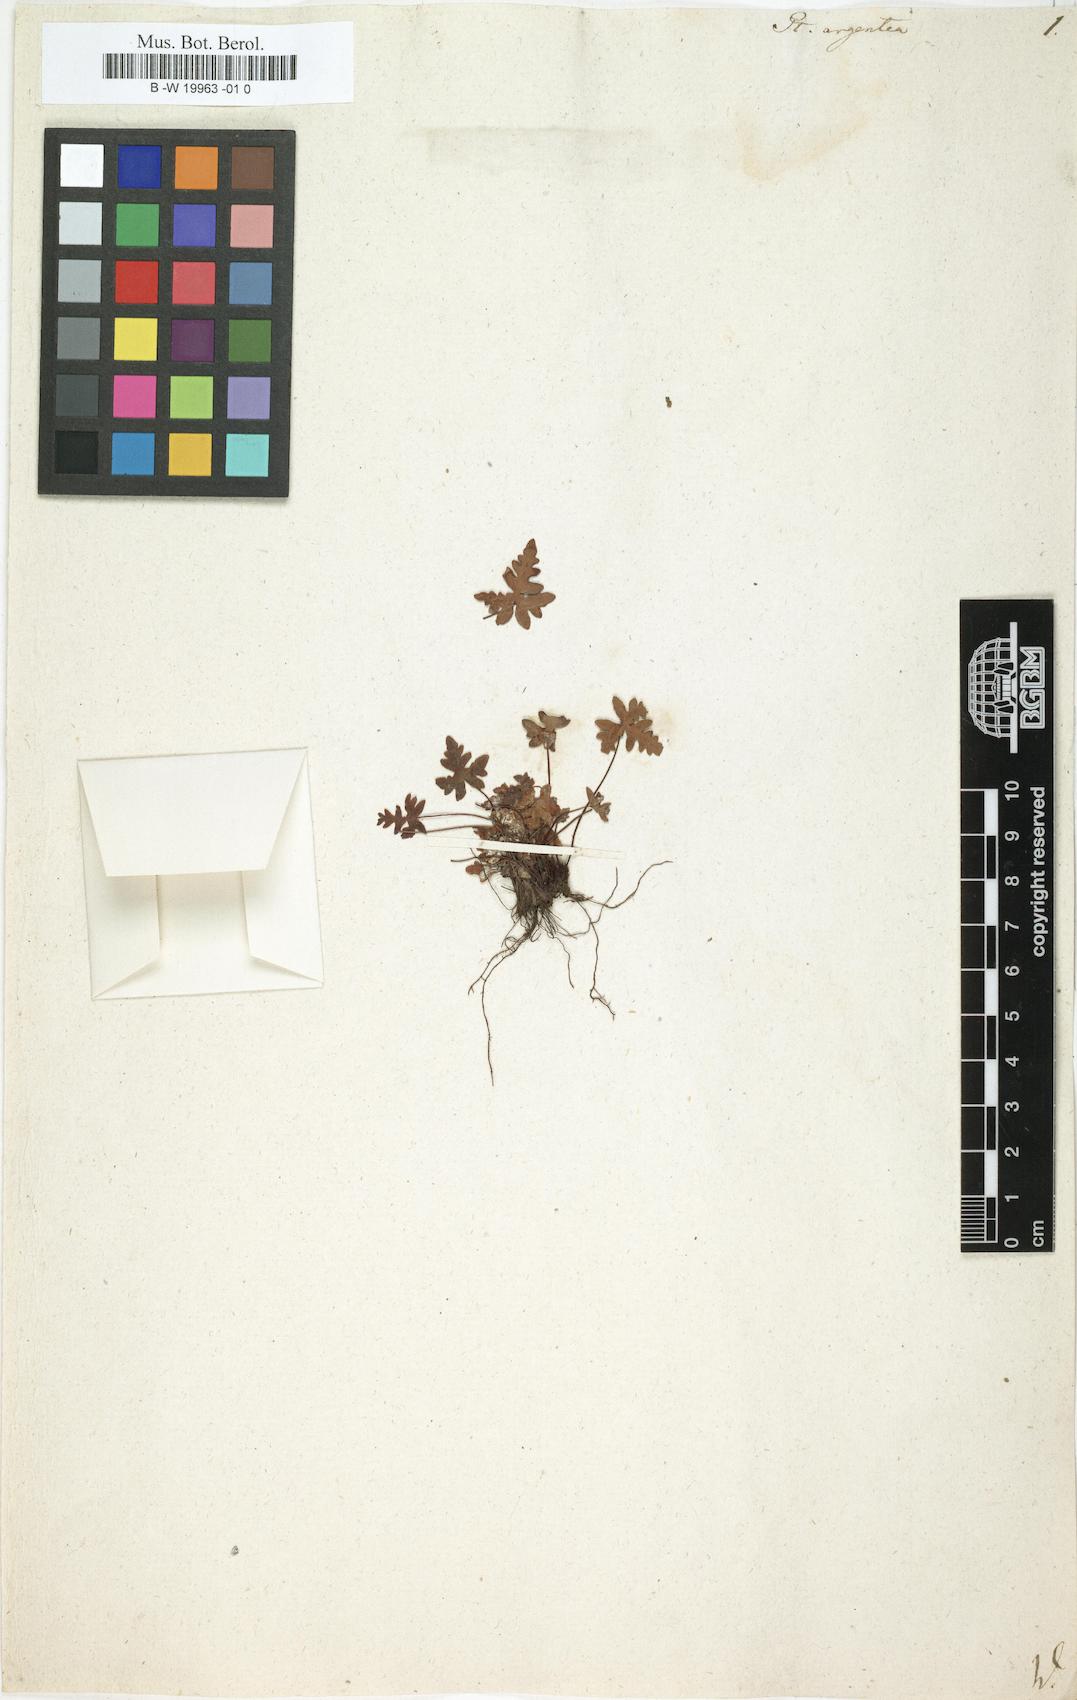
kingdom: Plantae
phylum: Tracheophyta
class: Polypodiopsida
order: Polypodiales
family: Pteridaceae
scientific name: Pteridaceae
